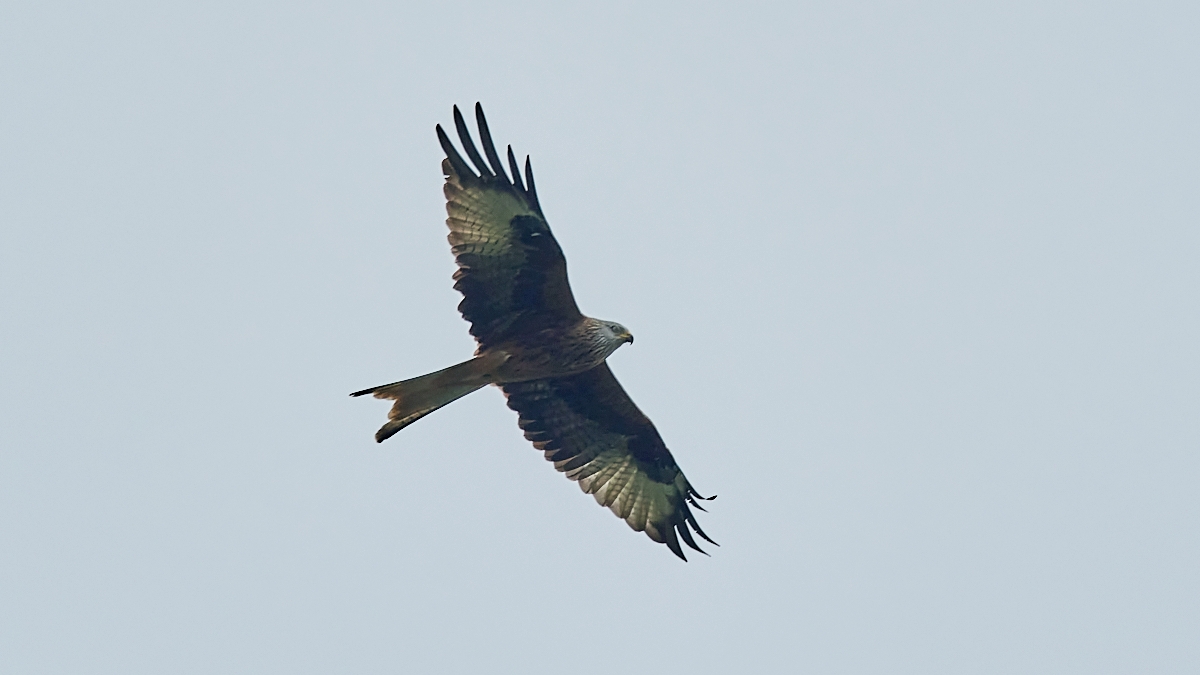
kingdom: Animalia
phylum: Chordata
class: Aves
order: Accipitriformes
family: Accipitridae
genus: Milvus
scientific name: Milvus milvus
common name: Rød glente
